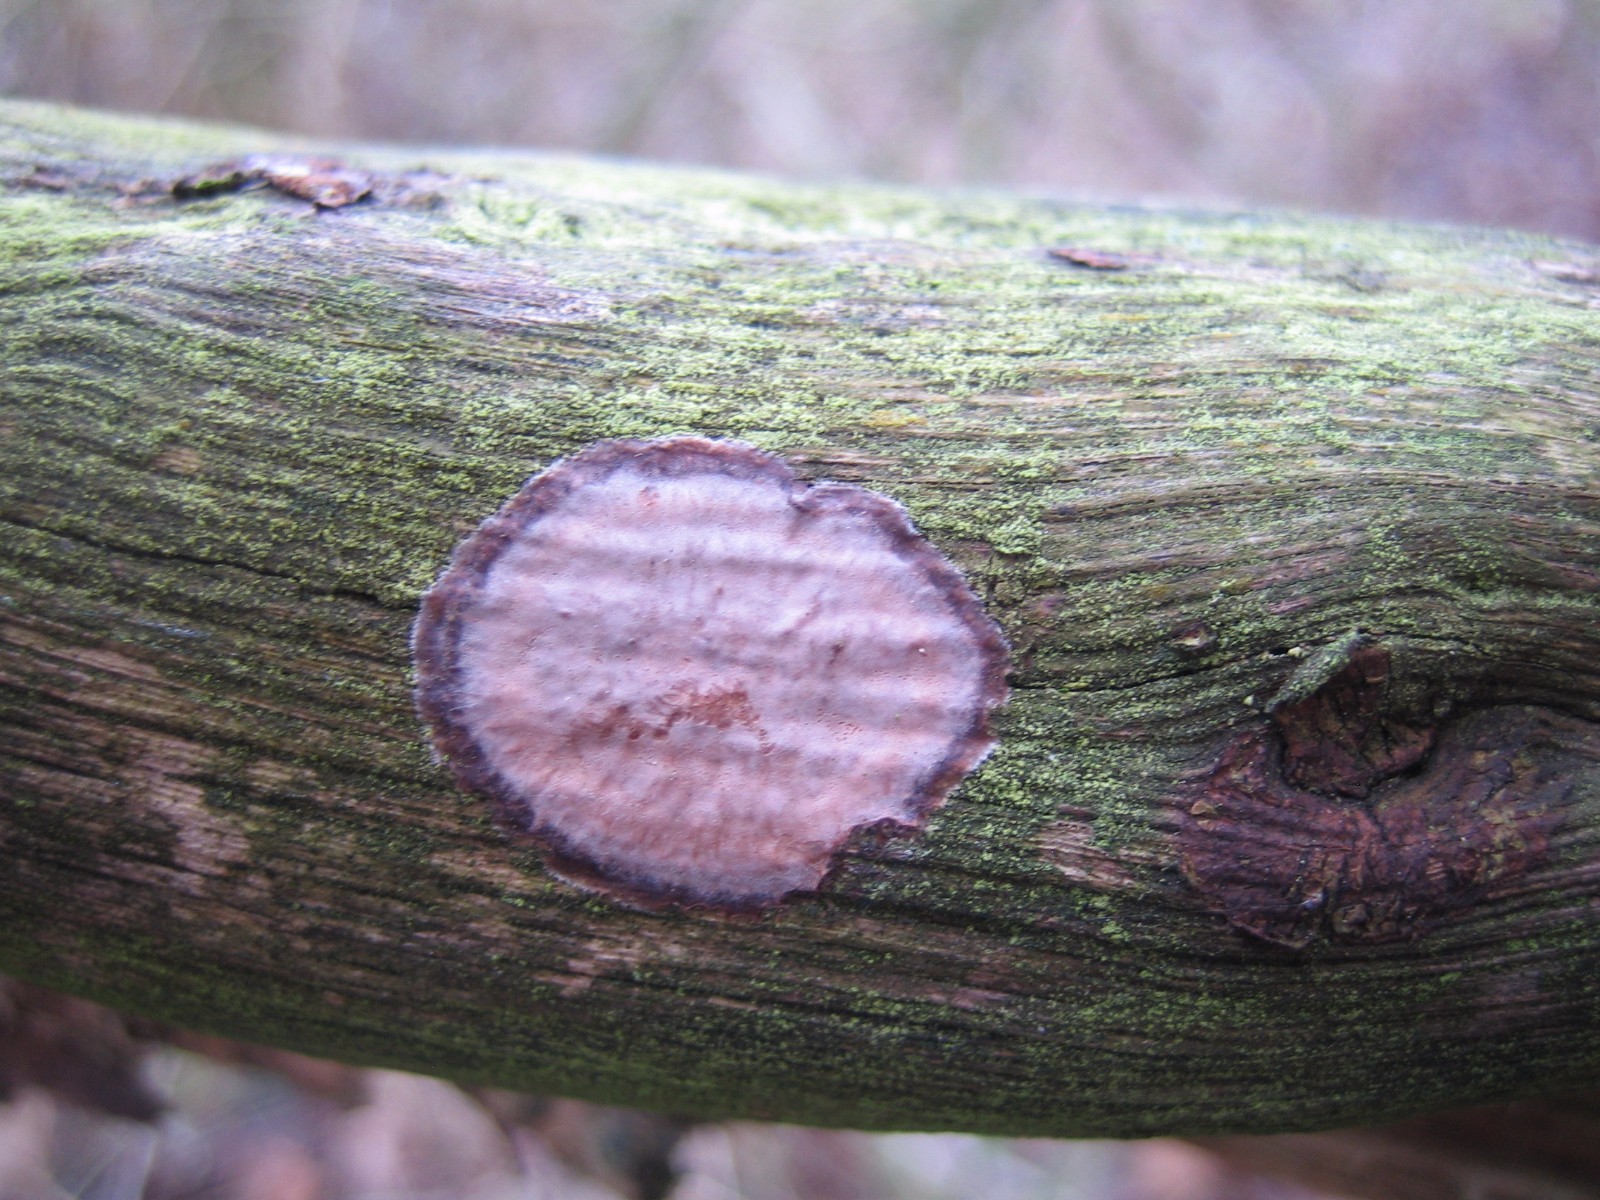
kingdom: Fungi
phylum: Basidiomycota
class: Agaricomycetes
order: Corticiales
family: Corticiaceae
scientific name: Corticiaceae
